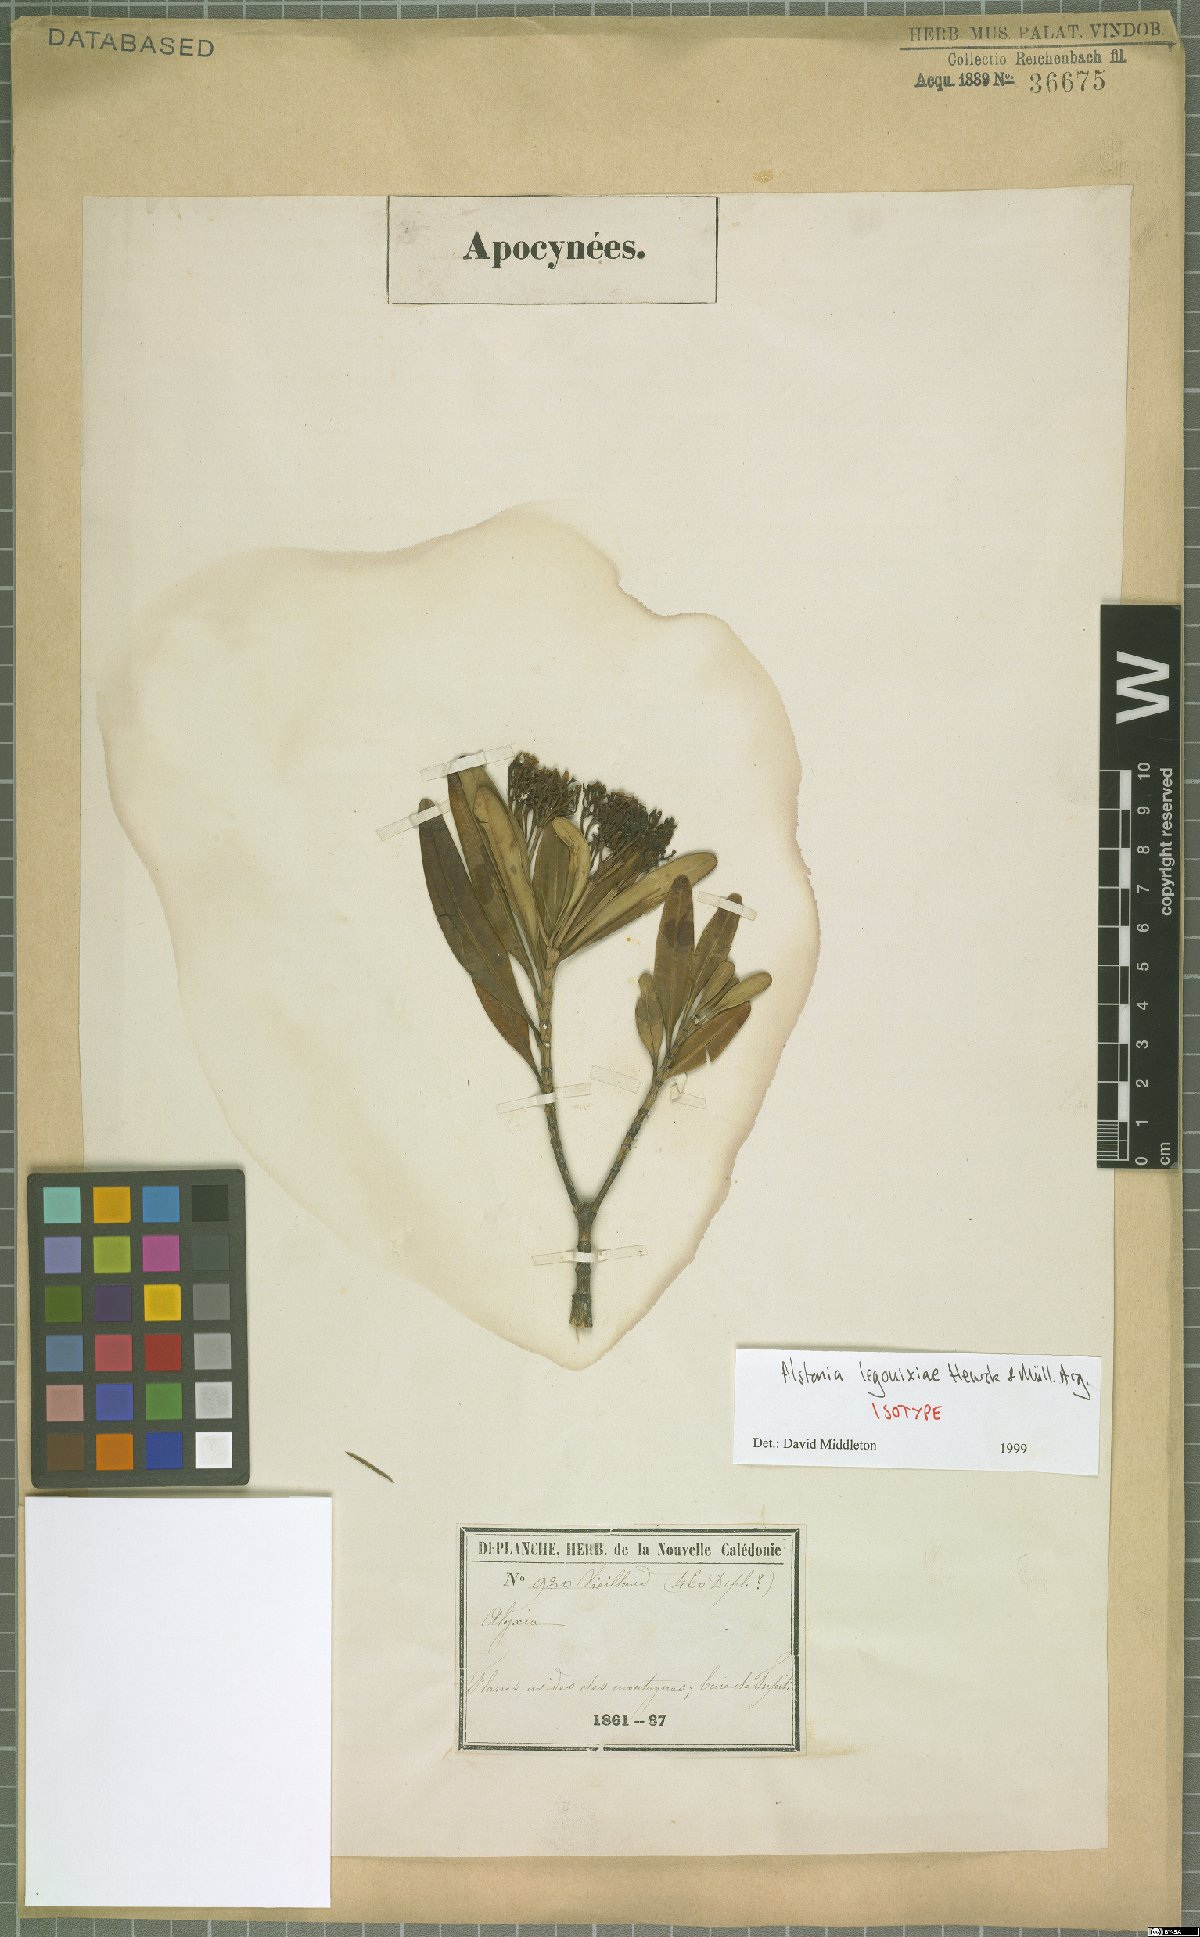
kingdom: Plantae
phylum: Tracheophyta
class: Magnoliopsida
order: Gentianales
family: Apocynaceae
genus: Alstonia
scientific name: Alstonia legouixiae
